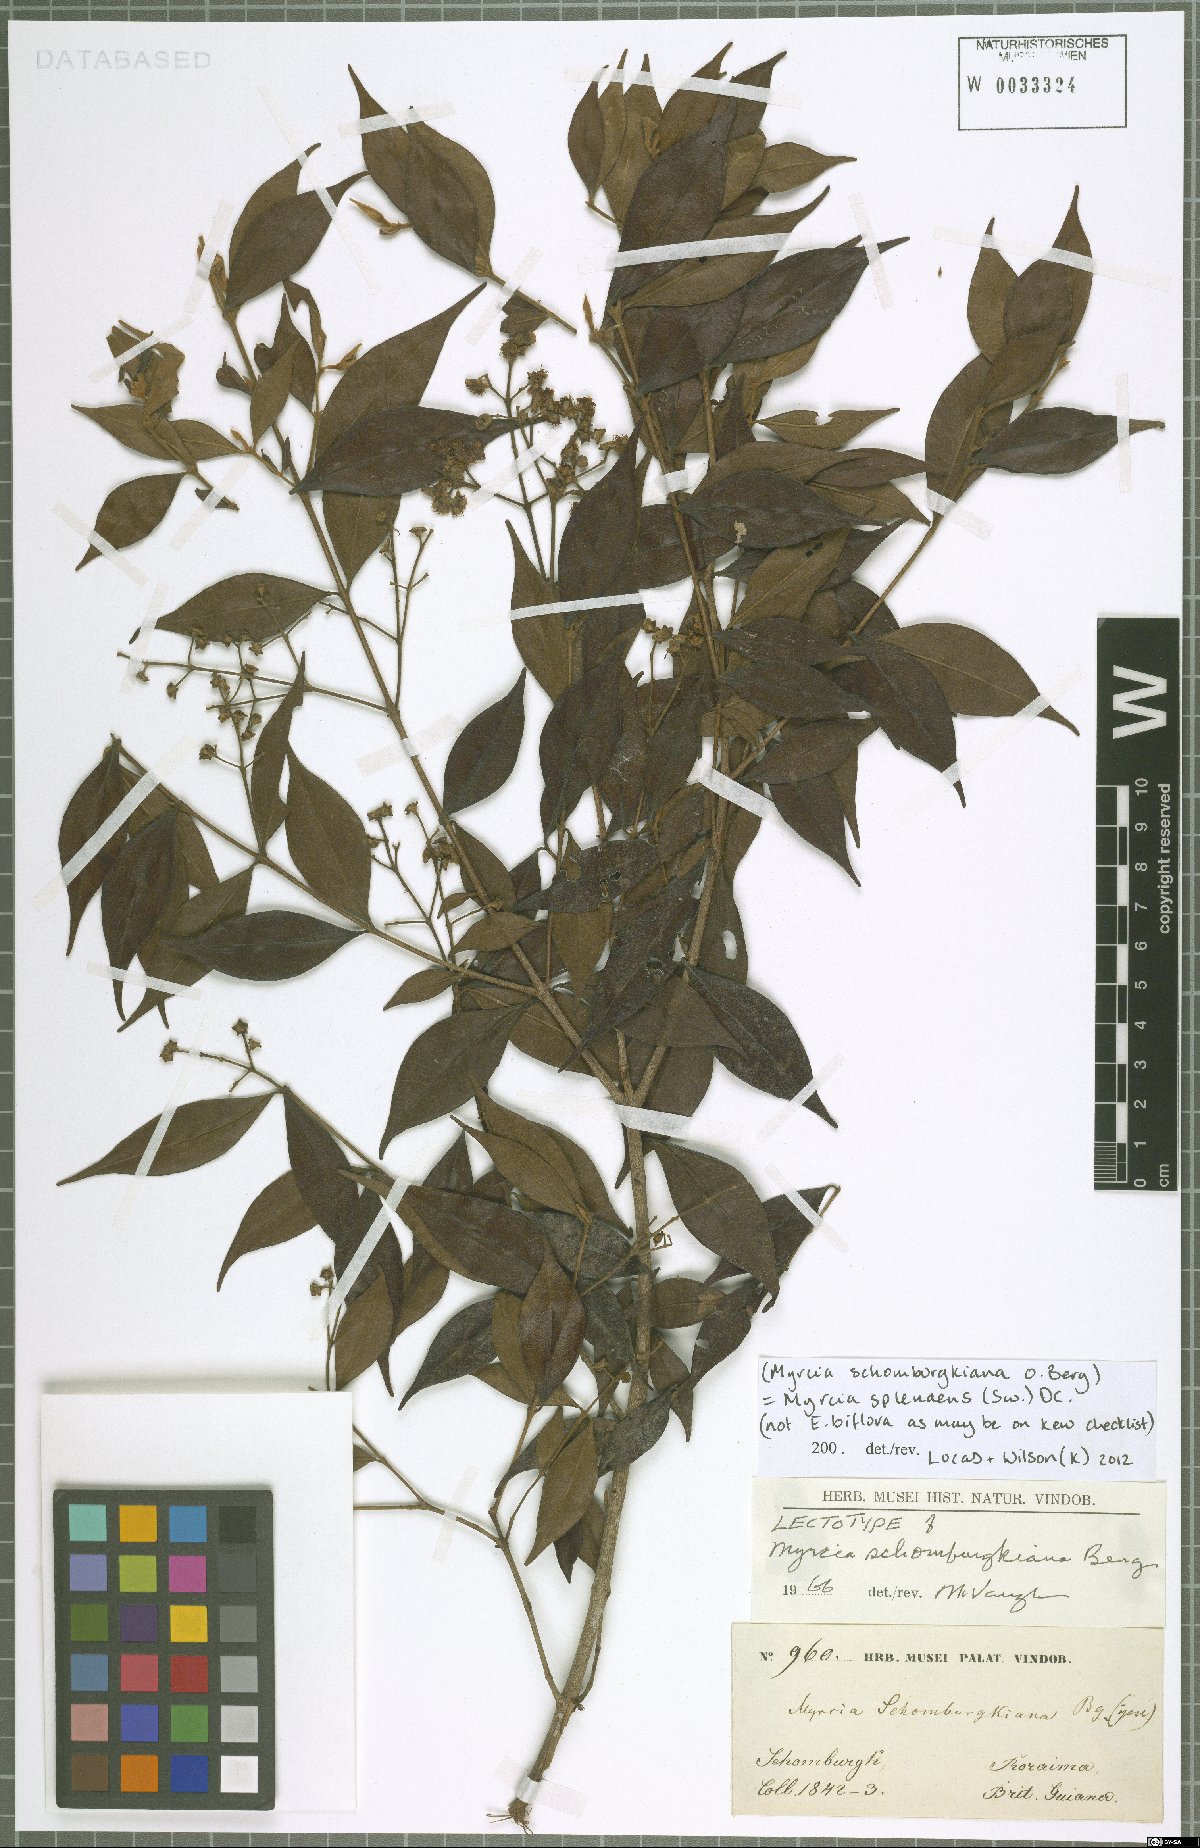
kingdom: Plantae
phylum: Tracheophyta
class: Magnoliopsida
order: Myrtales
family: Myrtaceae
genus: Myrcia
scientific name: Myrcia servata
